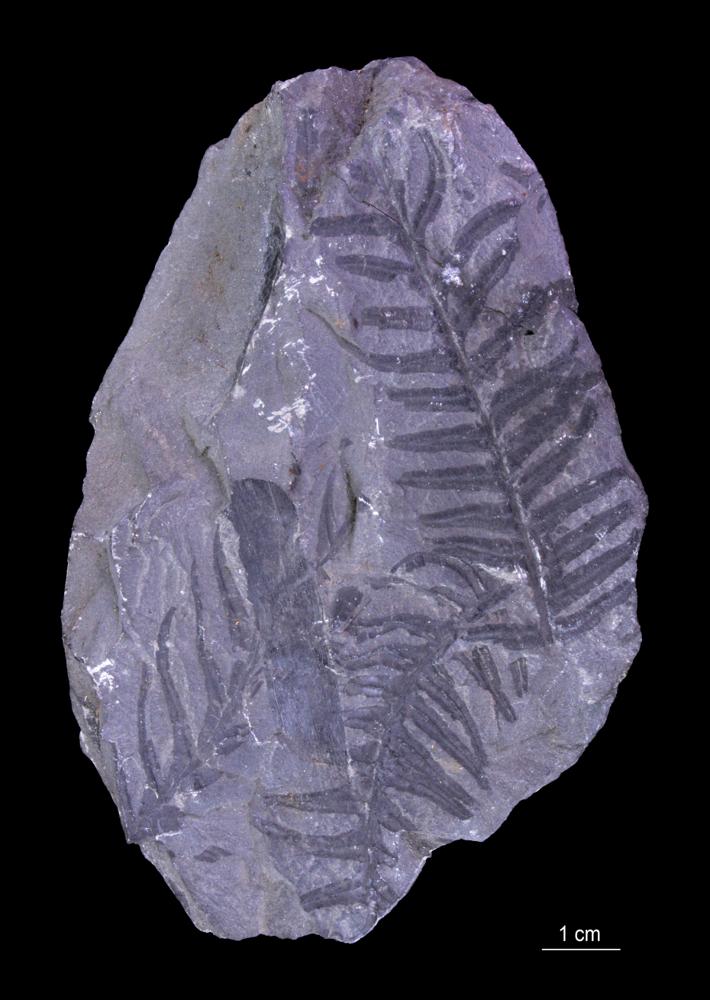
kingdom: Plantae
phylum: Tracheophyta
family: Pachytestaceae
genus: Neuropteris
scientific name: Neuropteris
